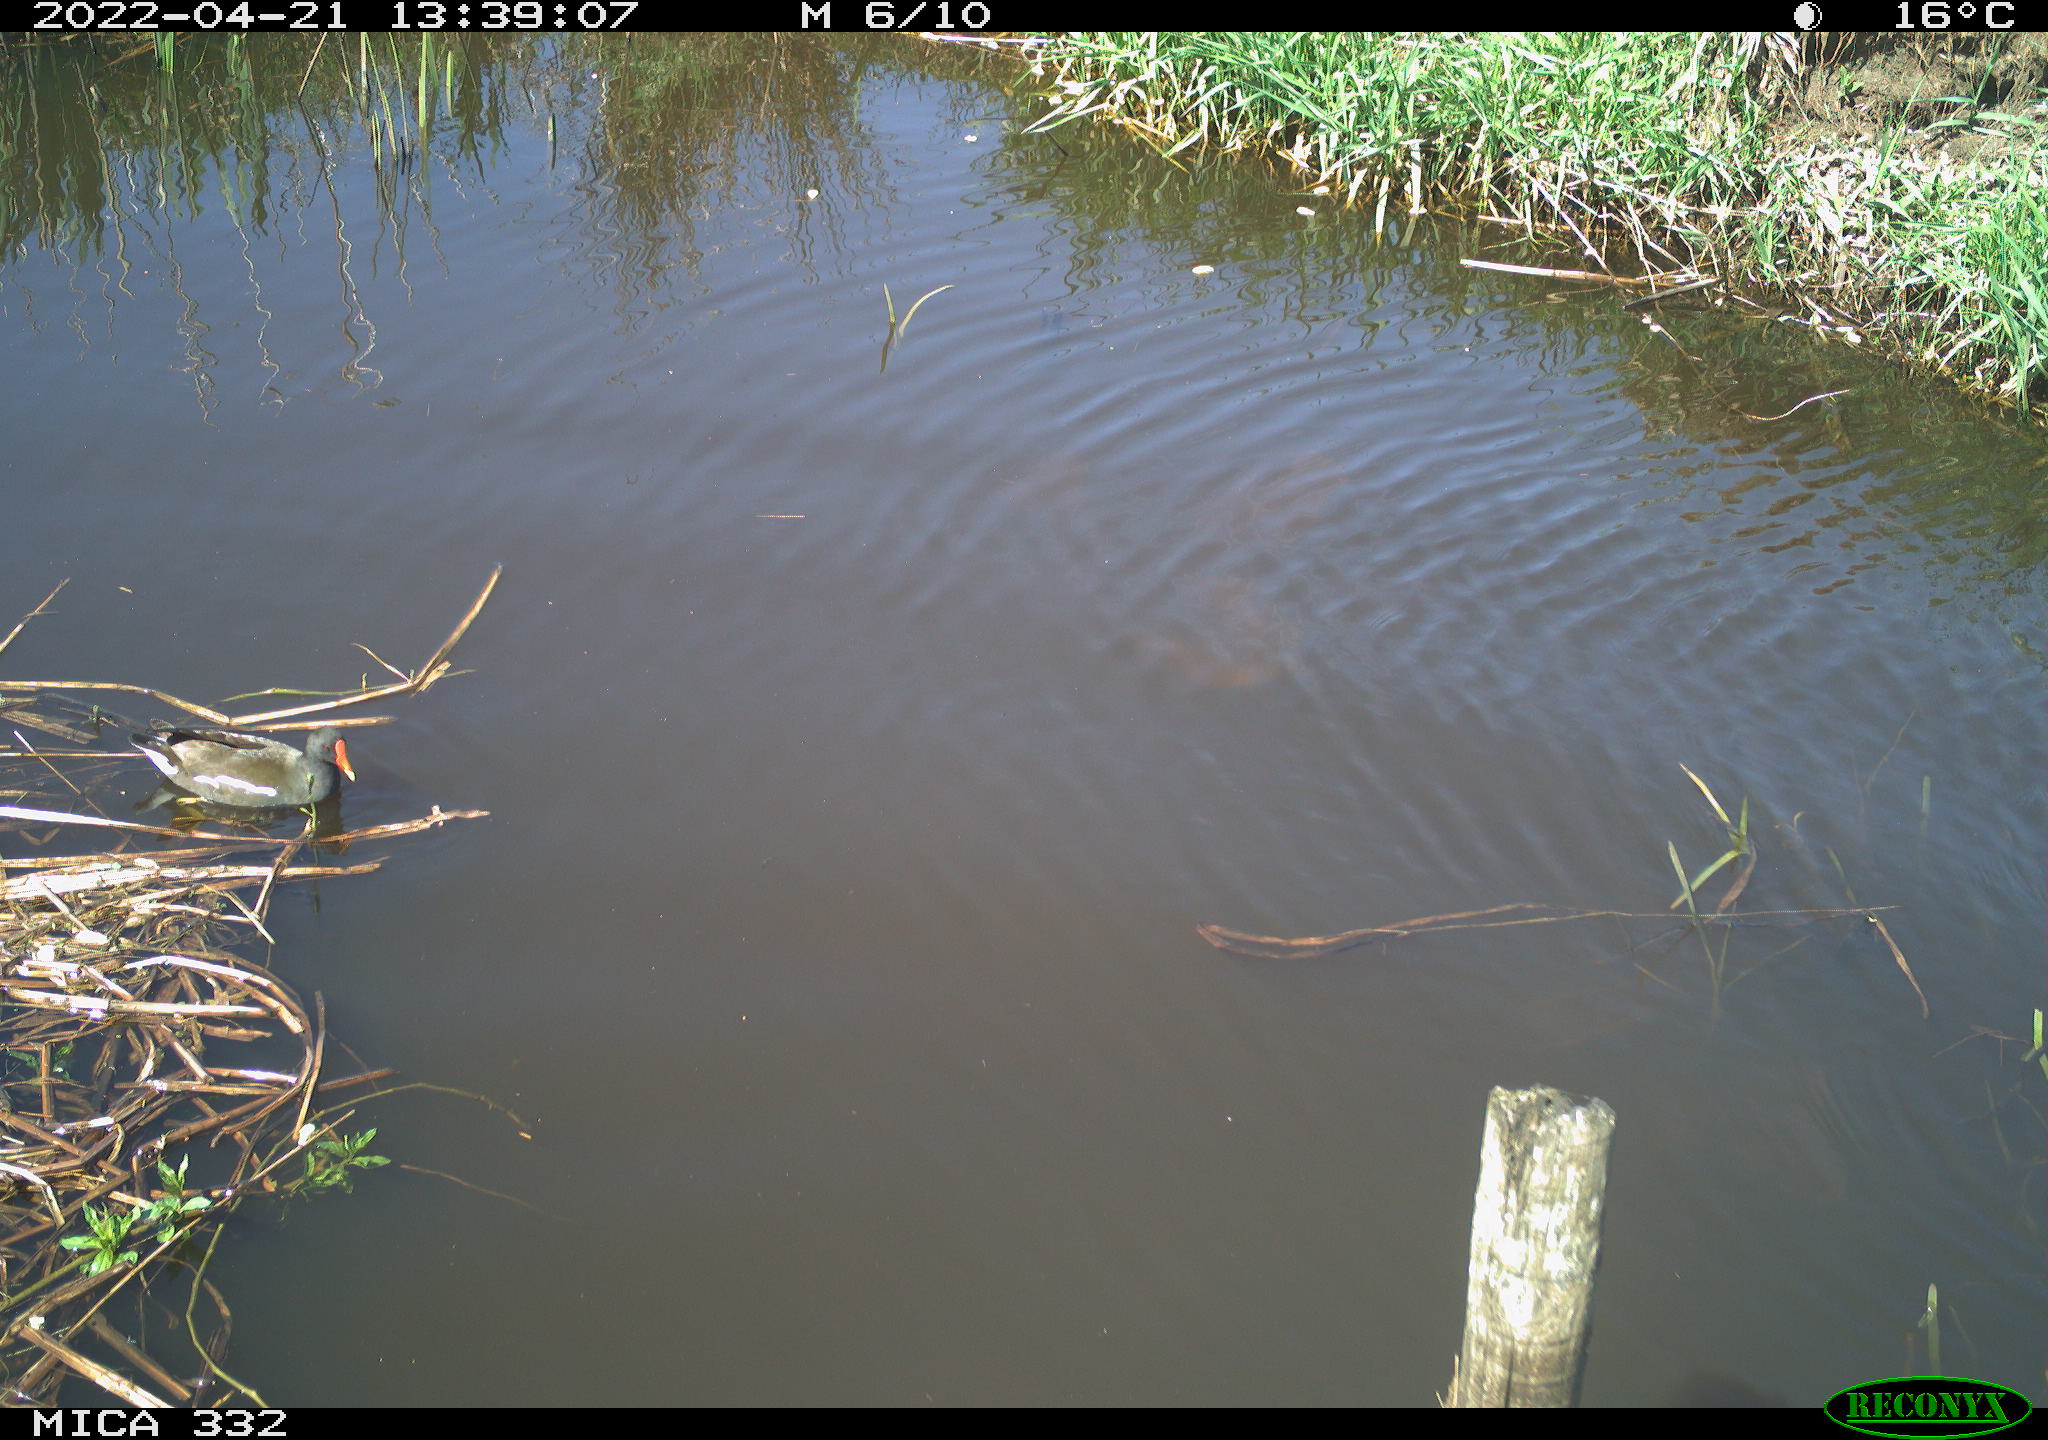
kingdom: Animalia
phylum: Chordata
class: Aves
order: Gruiformes
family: Rallidae
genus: Gallinula
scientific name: Gallinula chloropus
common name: Common moorhen
